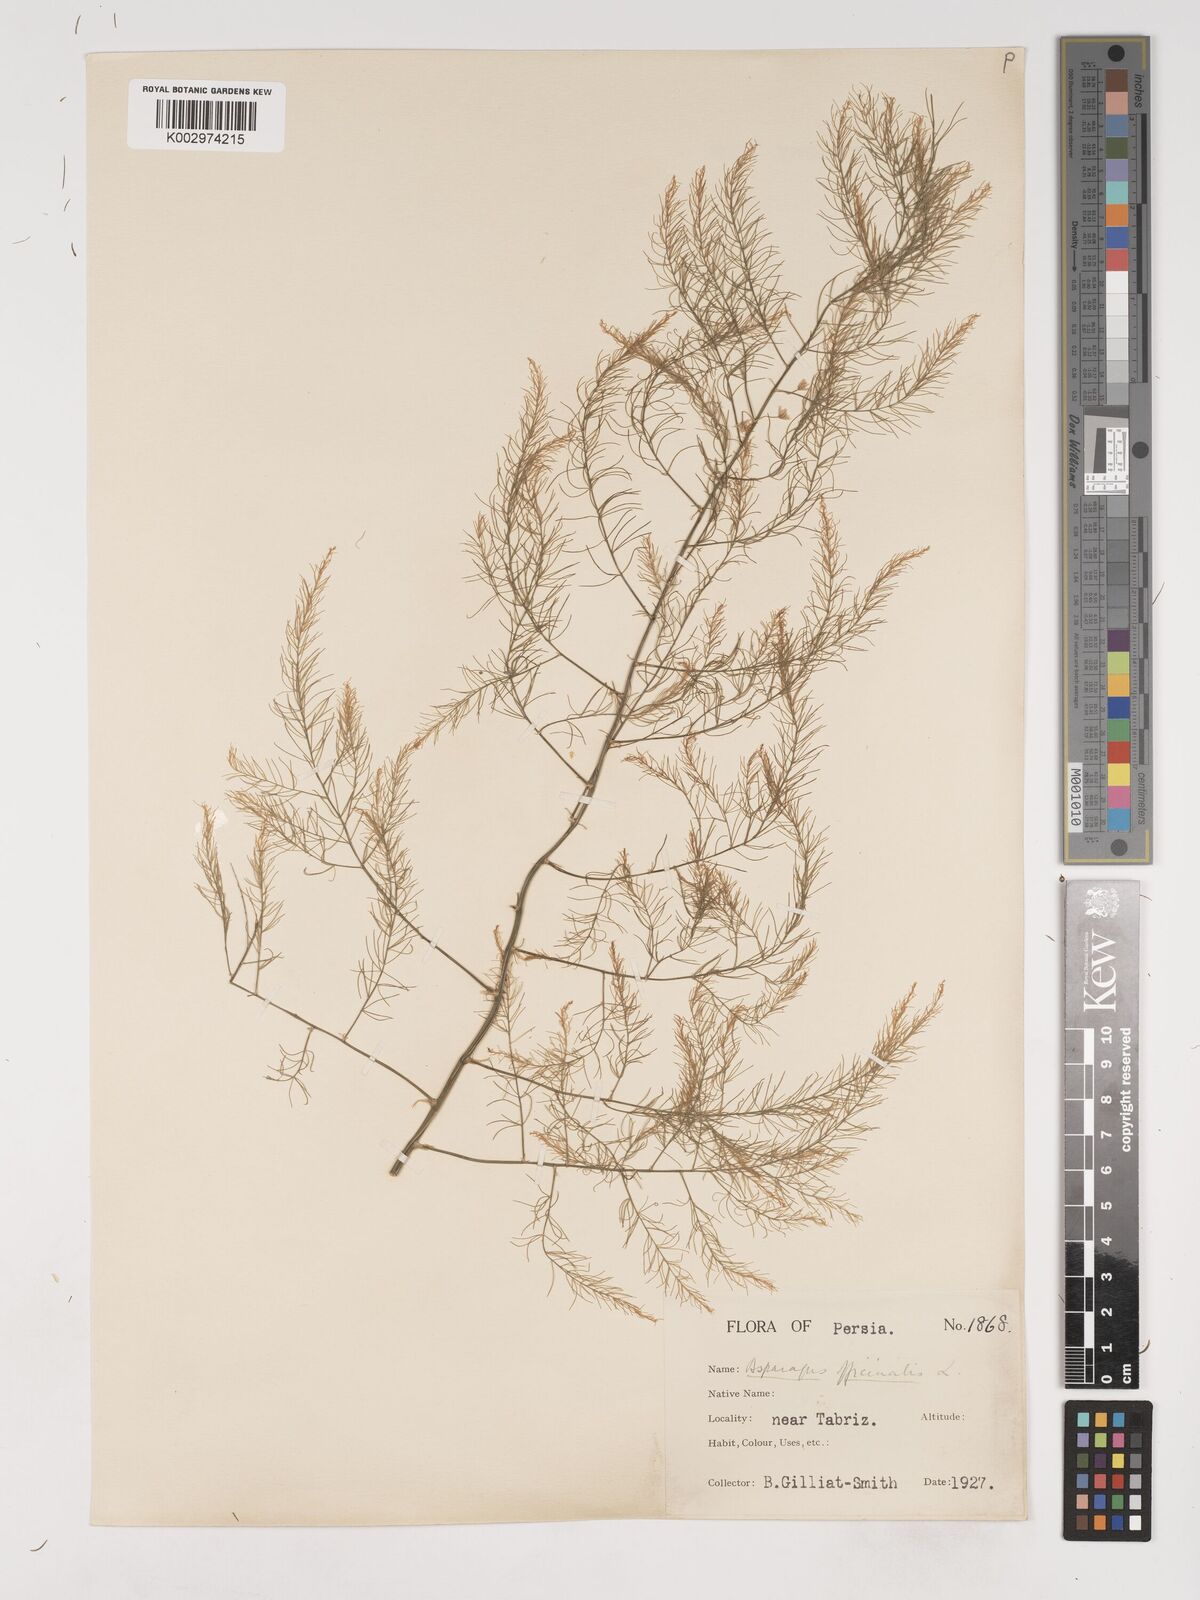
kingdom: Plantae
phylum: Tracheophyta
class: Liliopsida
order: Asparagales
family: Asparagaceae
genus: Asparagus
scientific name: Asparagus officinalis
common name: Garden asparagus
